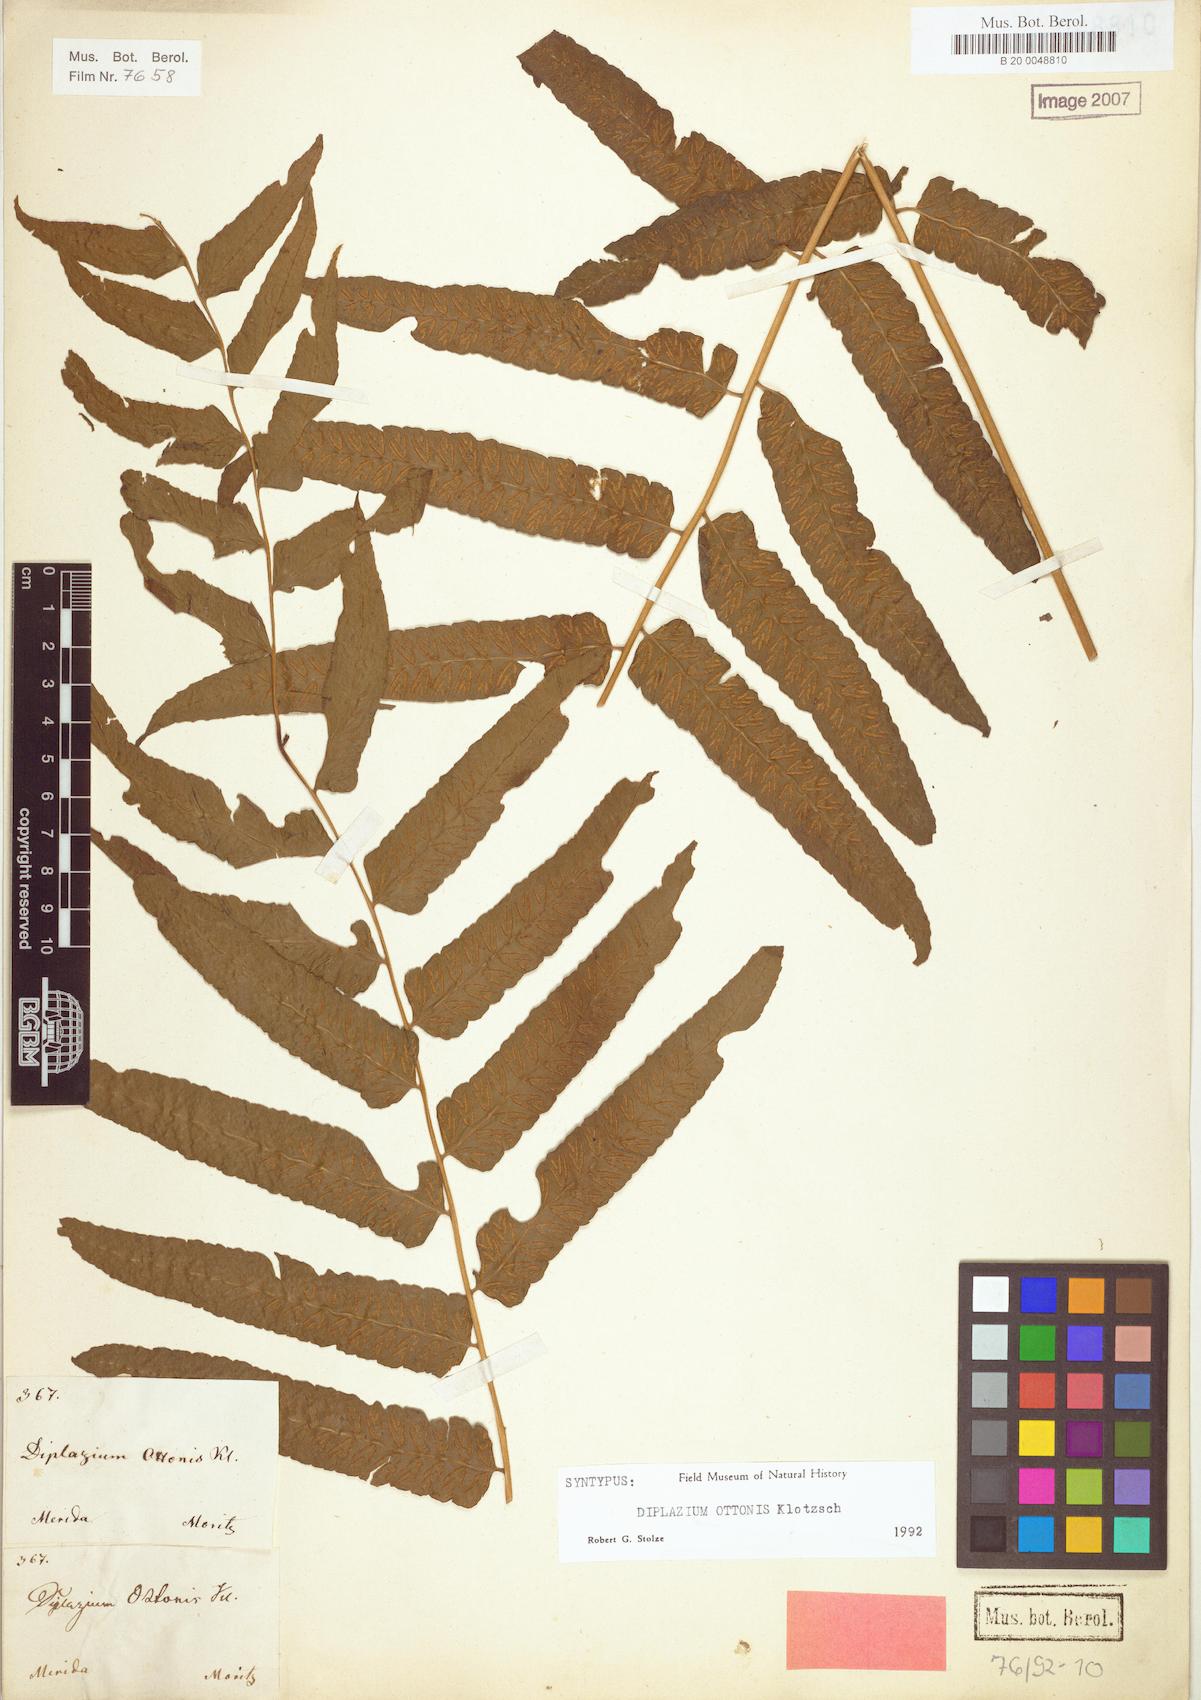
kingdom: Plantae
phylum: Tracheophyta
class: Polypodiopsida
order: Polypodiales
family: Athyriaceae
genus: Diplazium
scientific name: Diplazium ottonis
